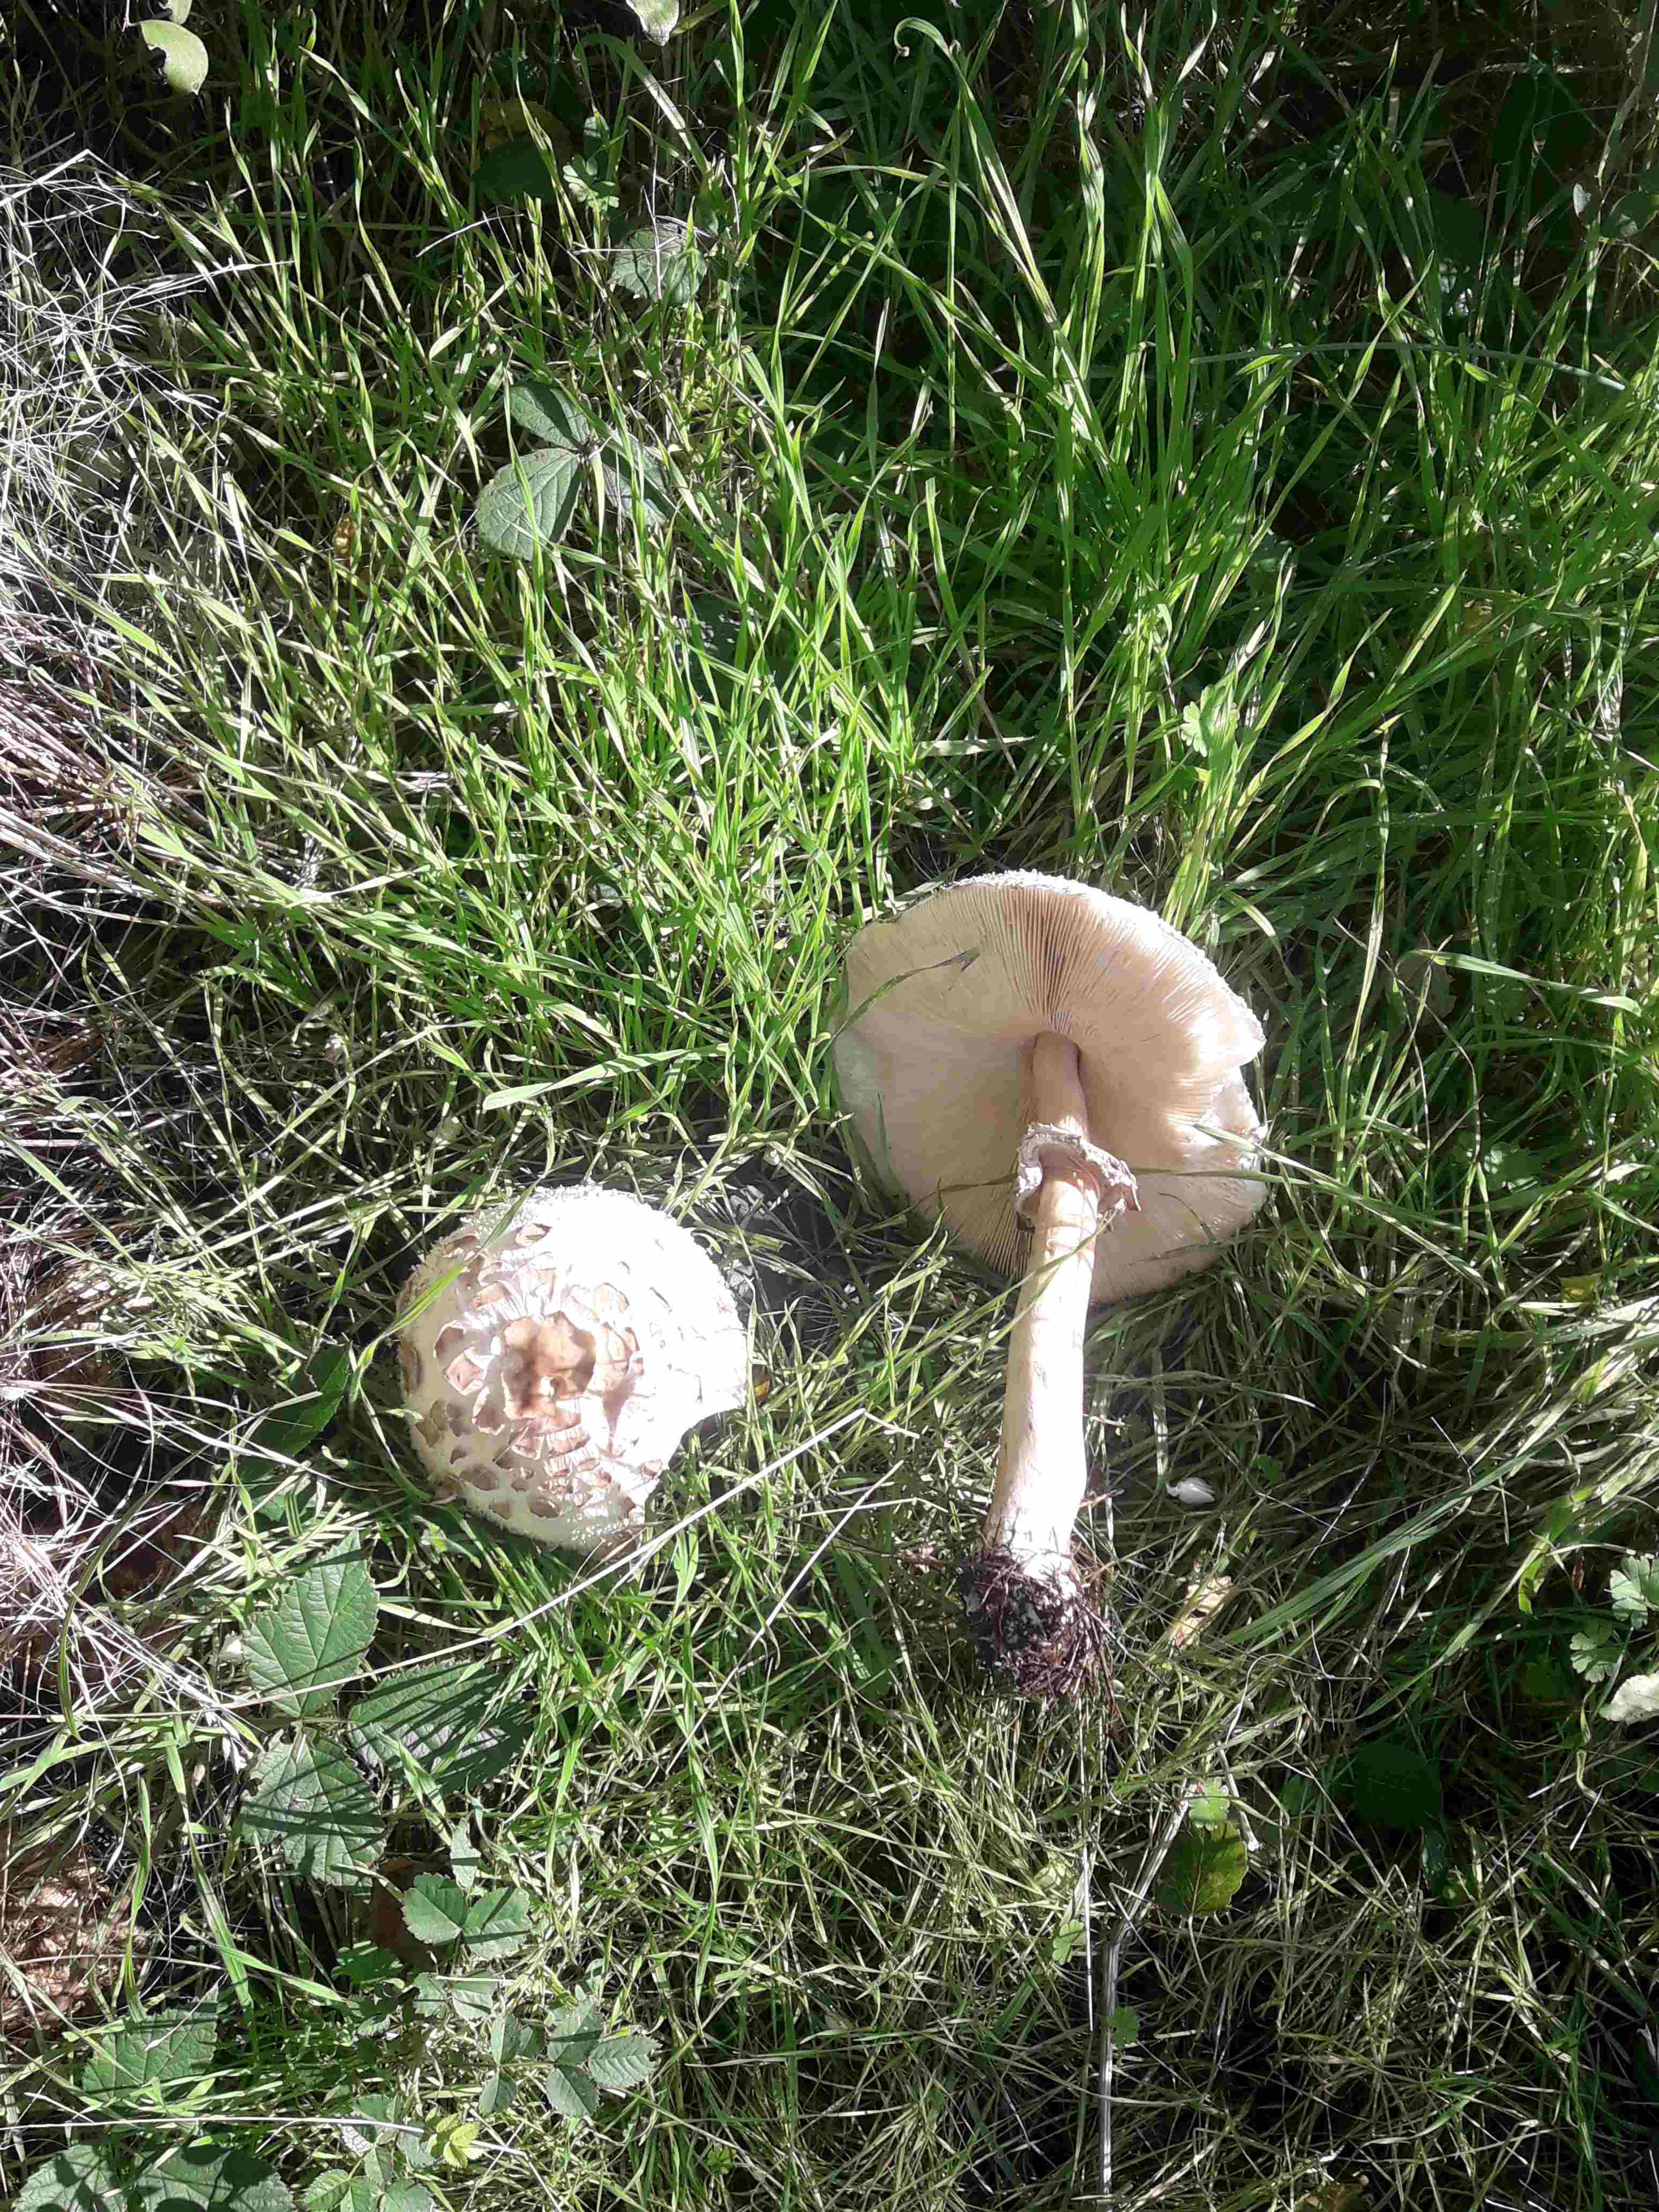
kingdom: Fungi
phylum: Basidiomycota
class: Agaricomycetes
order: Agaricales
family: Agaricaceae
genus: Chlorophyllum
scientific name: Chlorophyllum rhacodes
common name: ægte rabarberhat
